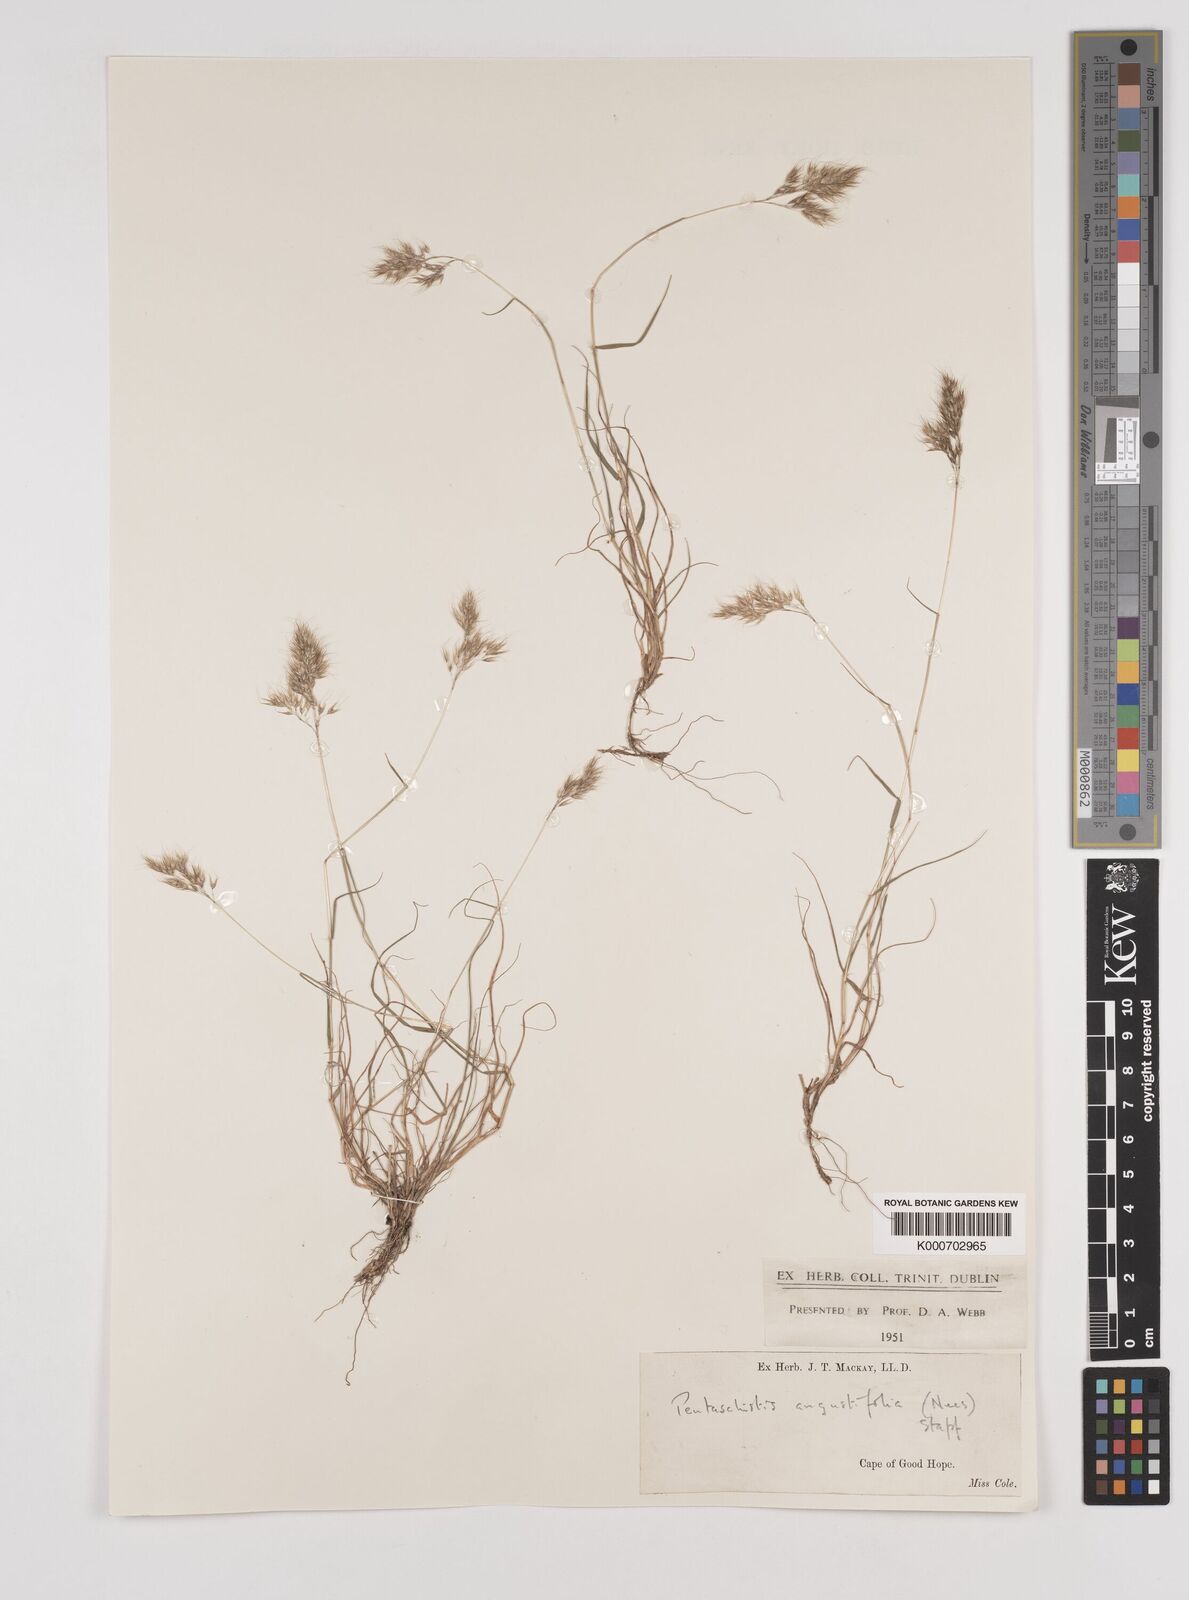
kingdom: Plantae
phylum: Tracheophyta
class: Liliopsida
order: Poales
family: Poaceae
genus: Pentameris
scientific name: Pentameris pallida
